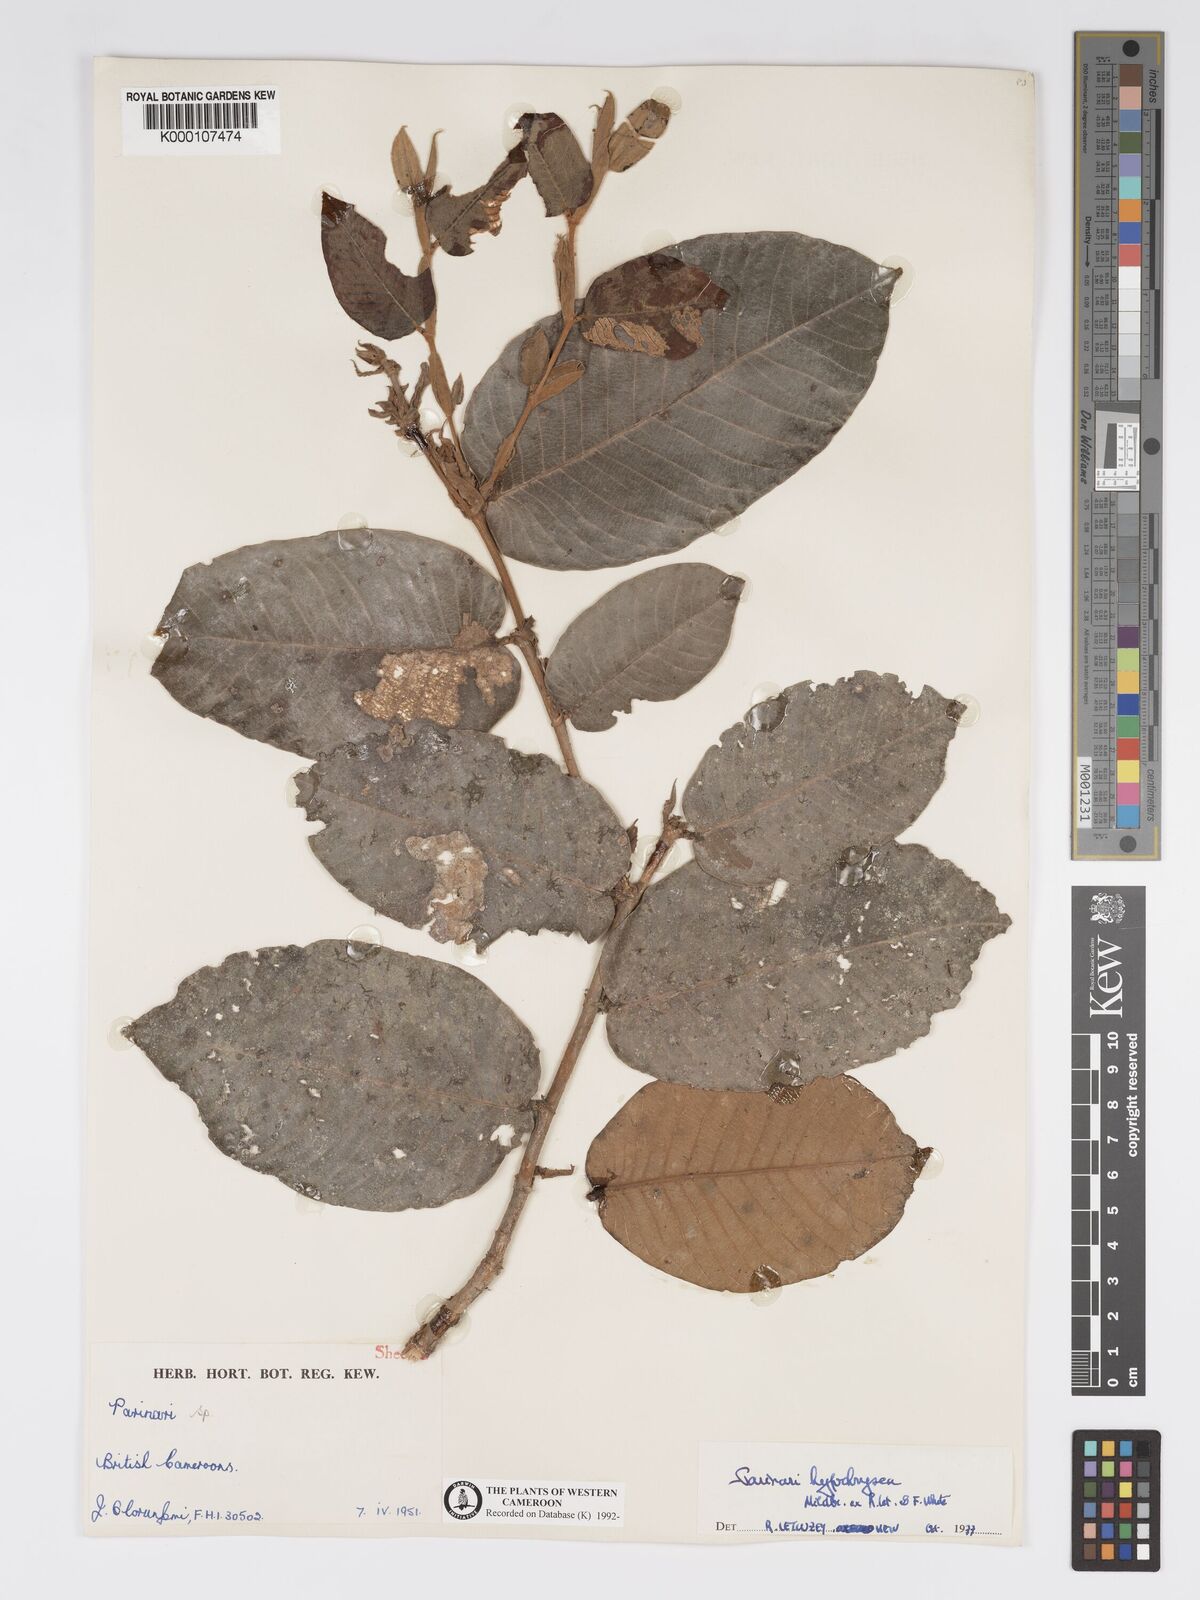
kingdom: Plantae
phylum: Tracheophyta
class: Magnoliopsida
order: Malpighiales
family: Chrysobalanaceae
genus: Parinari
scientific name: Parinari hypochrysea
